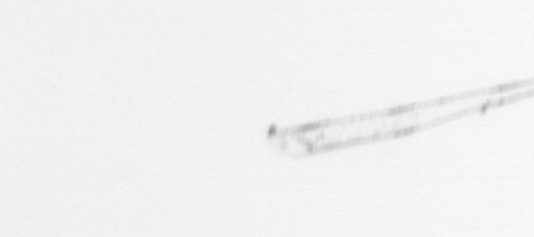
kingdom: Chromista
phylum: Ochrophyta
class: Bacillariophyceae
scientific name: Bacillariophyceae
